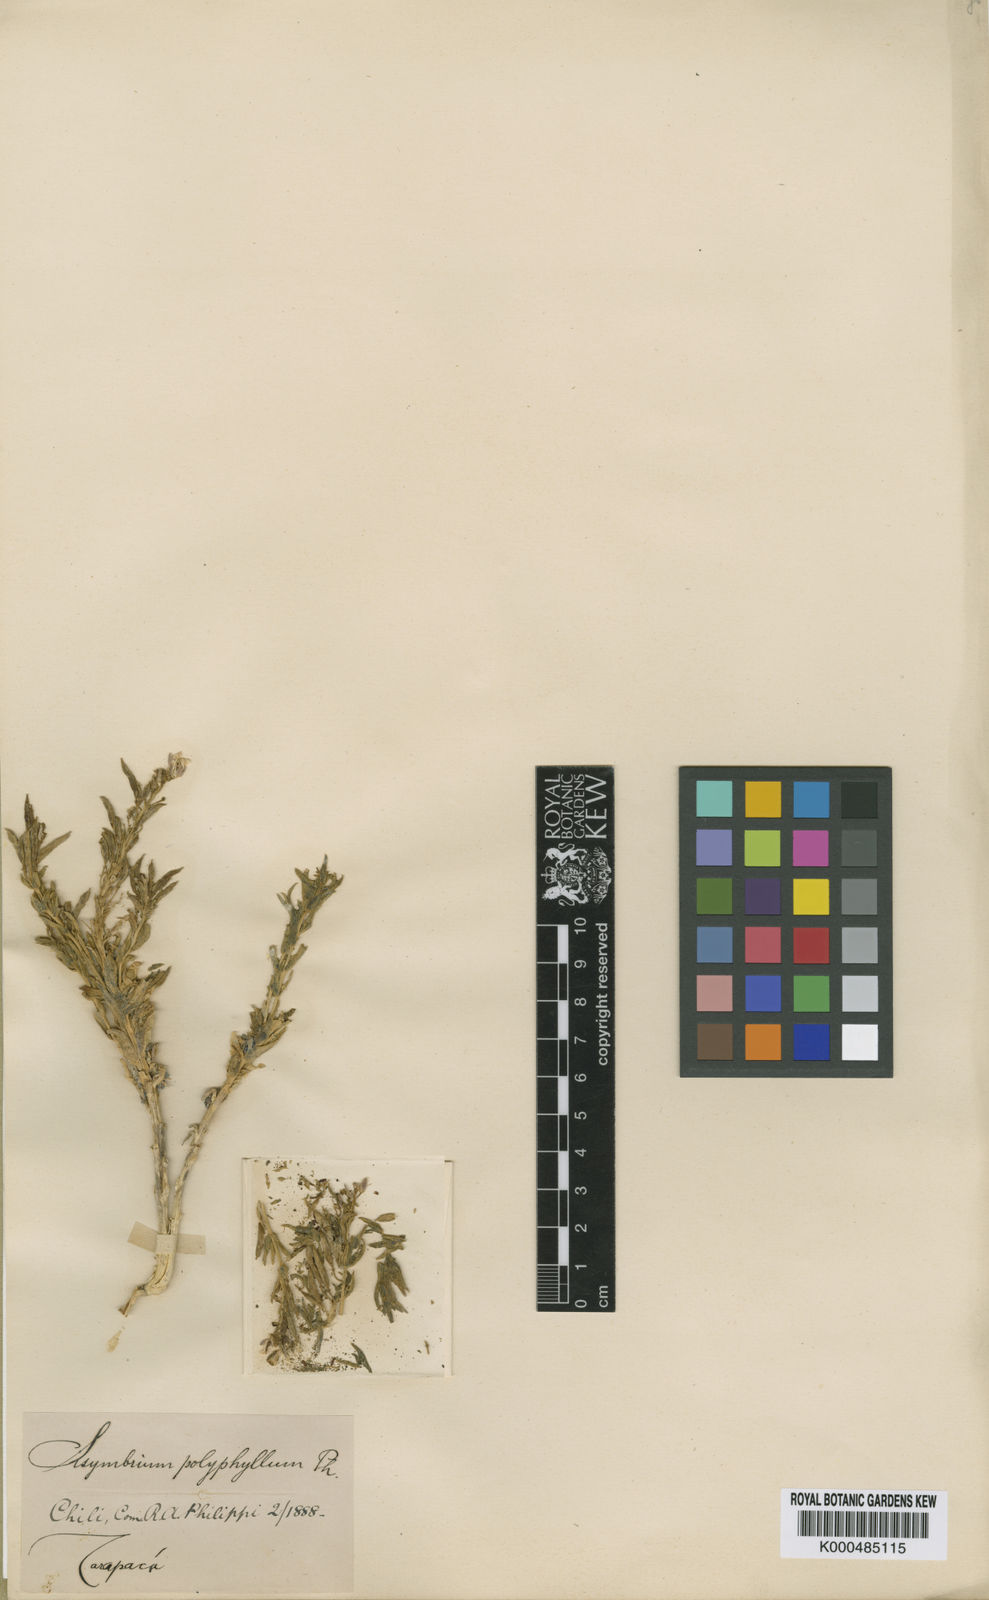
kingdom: Plantae
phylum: Tracheophyta
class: Magnoliopsida
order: Brassicales
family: Brassicaceae
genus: Neuontobotrys
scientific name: Neuontobotrys polyphylla
